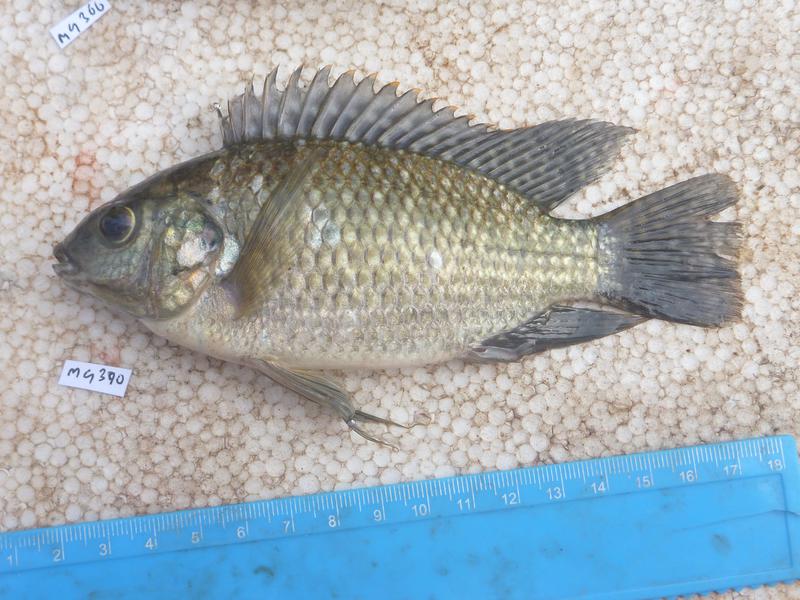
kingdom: Animalia
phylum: Chordata
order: Perciformes
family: Cichlidae
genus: Oreochromis
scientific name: Oreochromis leucostictus
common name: Blue spotted tilapia
